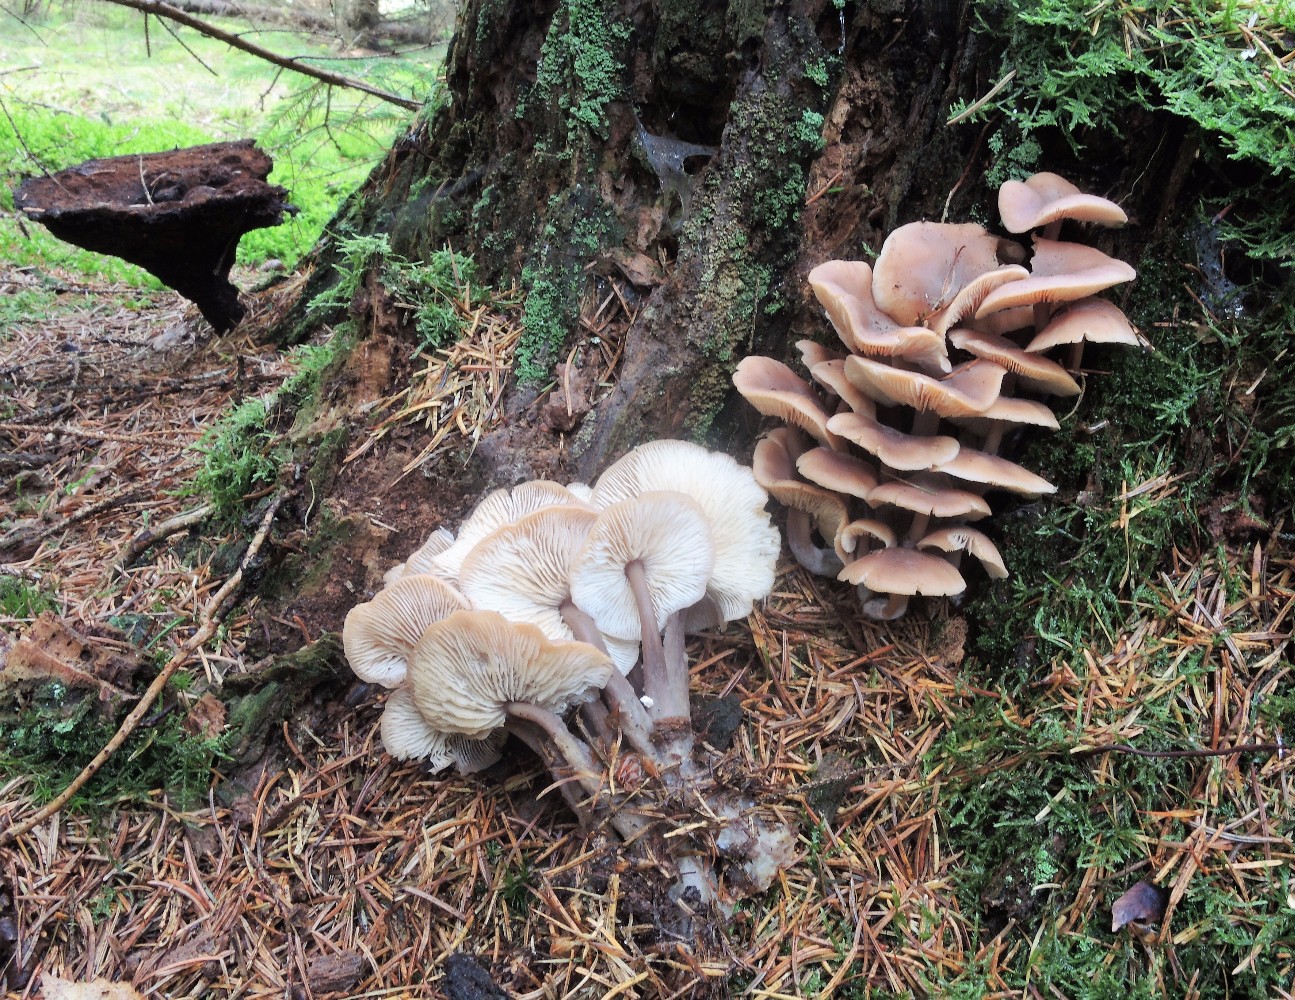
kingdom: Fungi
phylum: Basidiomycota
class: Agaricomycetes
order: Agaricales
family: Omphalotaceae
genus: Connopus
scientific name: Connopus acervatus
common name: tue-fladhat
